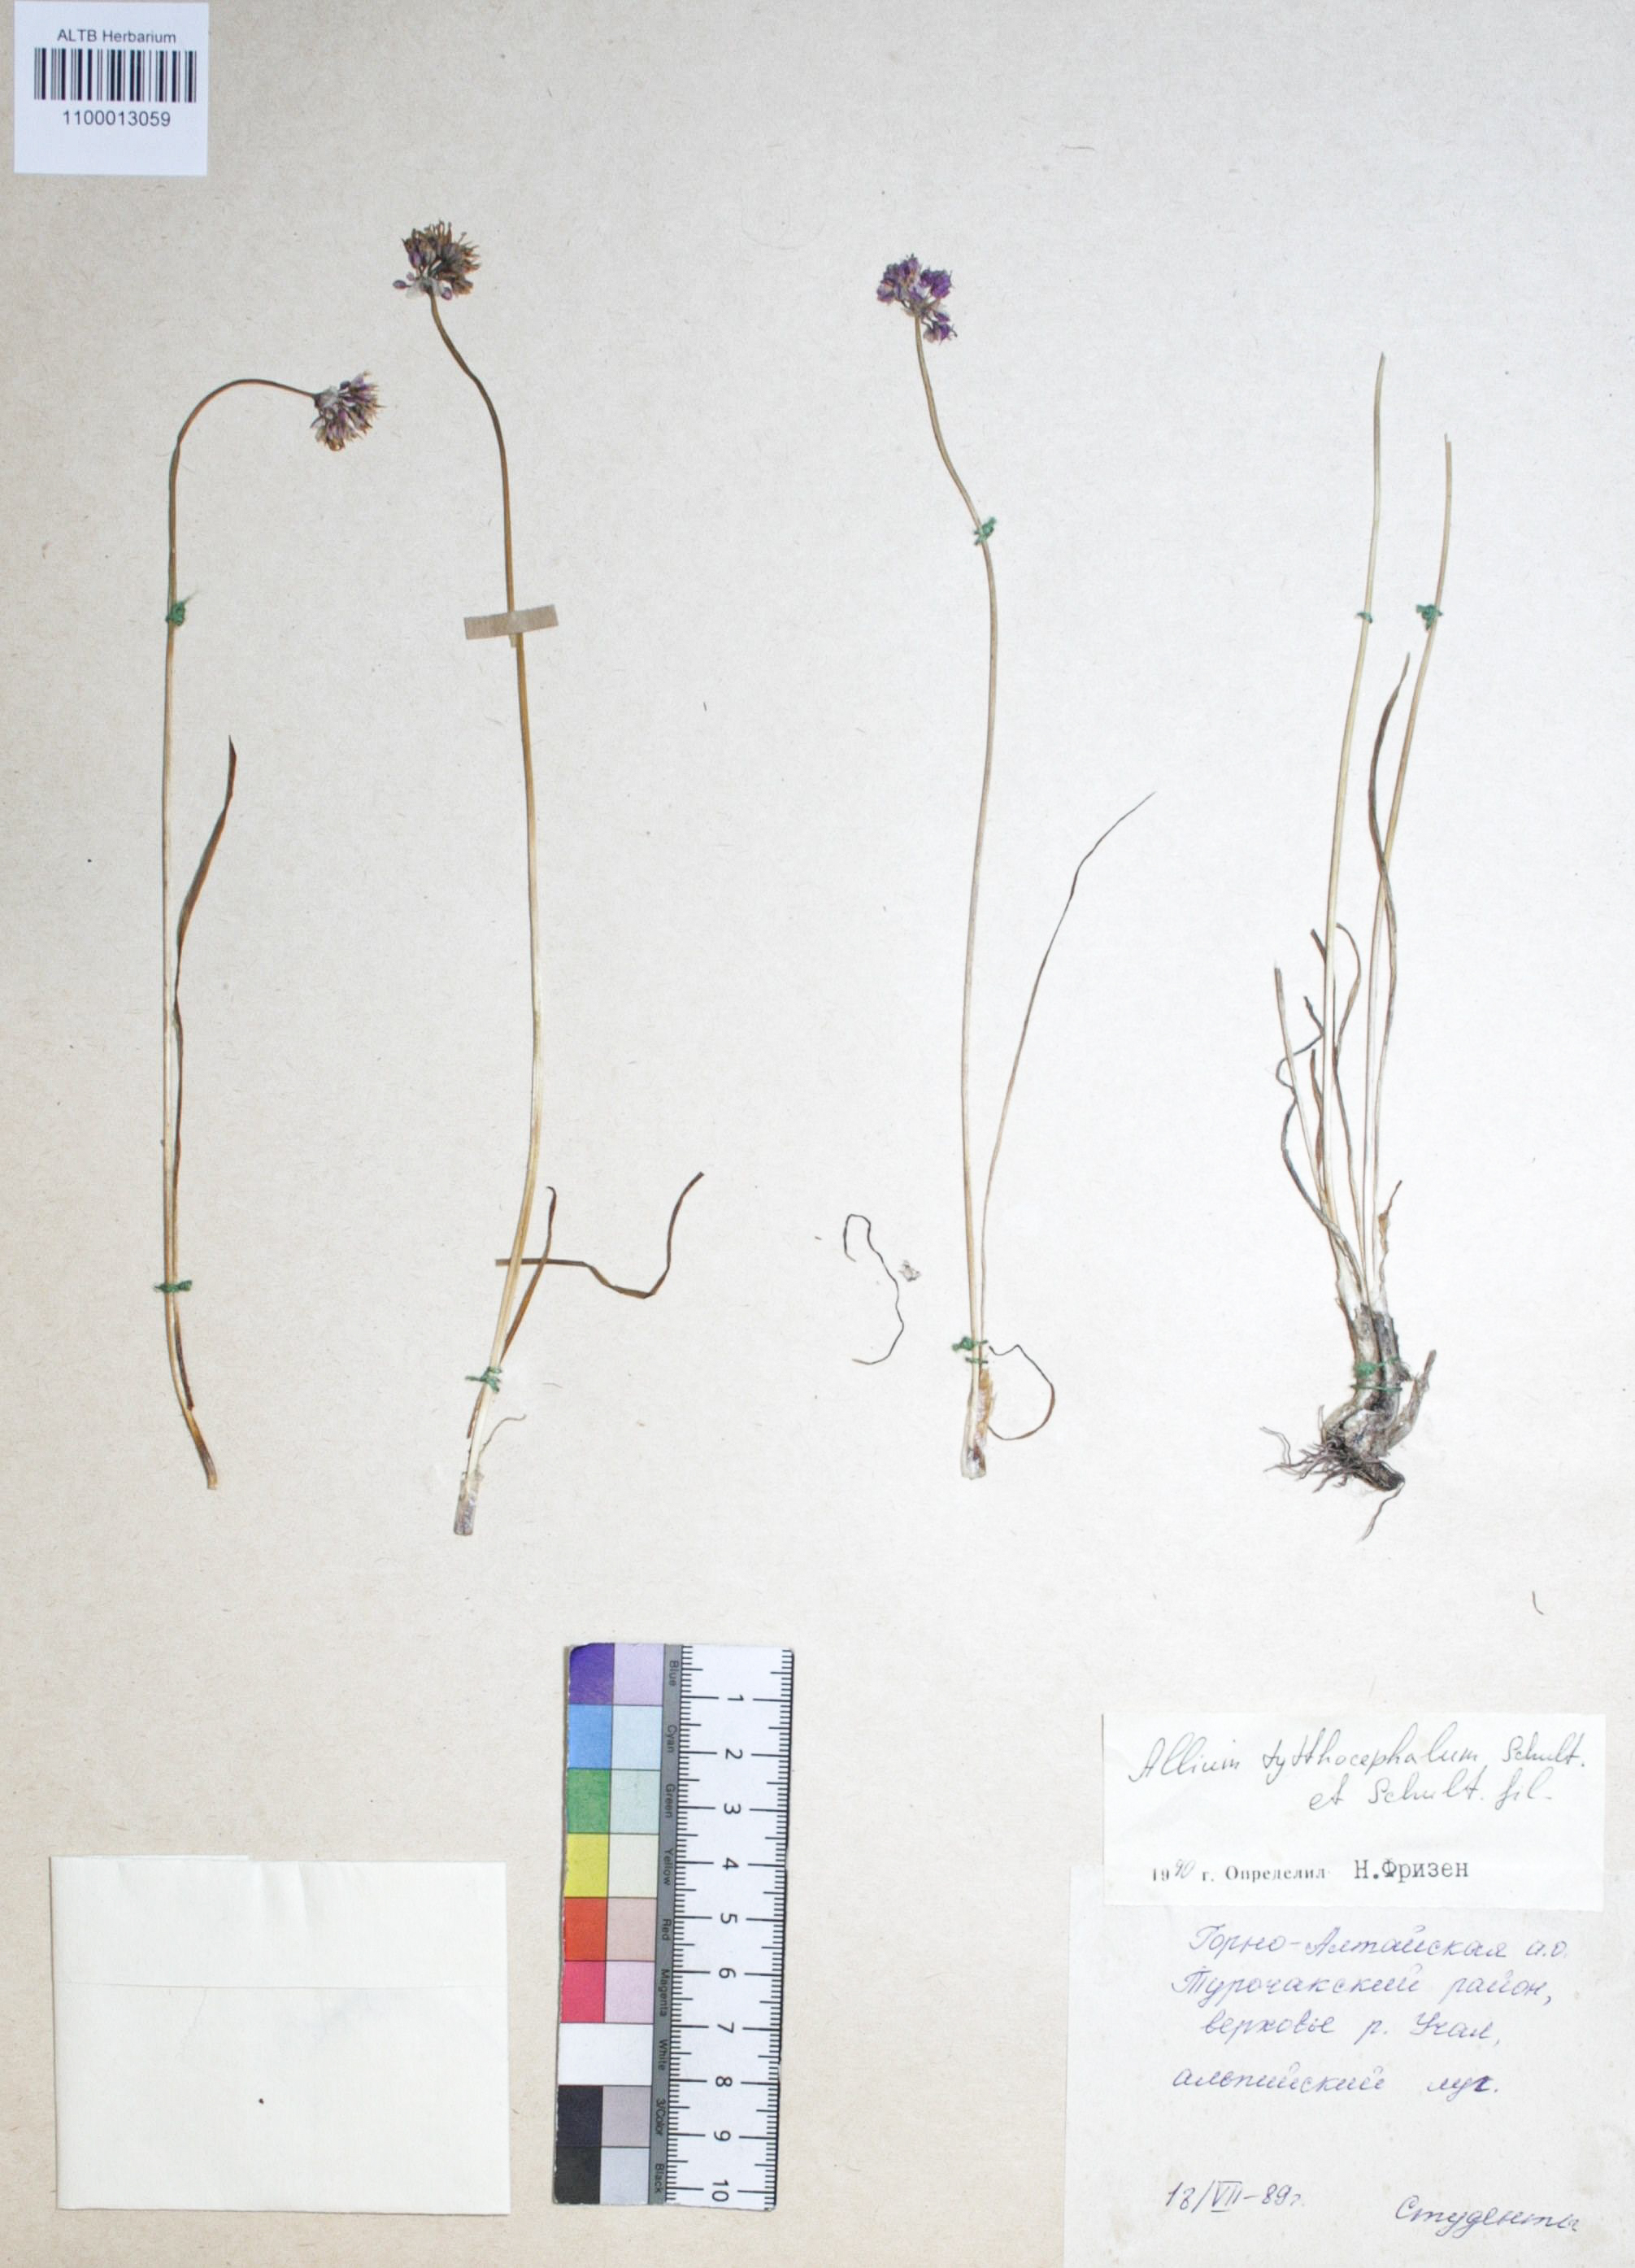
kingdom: Plantae
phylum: Tracheophyta
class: Liliopsida
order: Asparagales
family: Amaryllidaceae
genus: Allium
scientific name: Allium tytthocephalum
